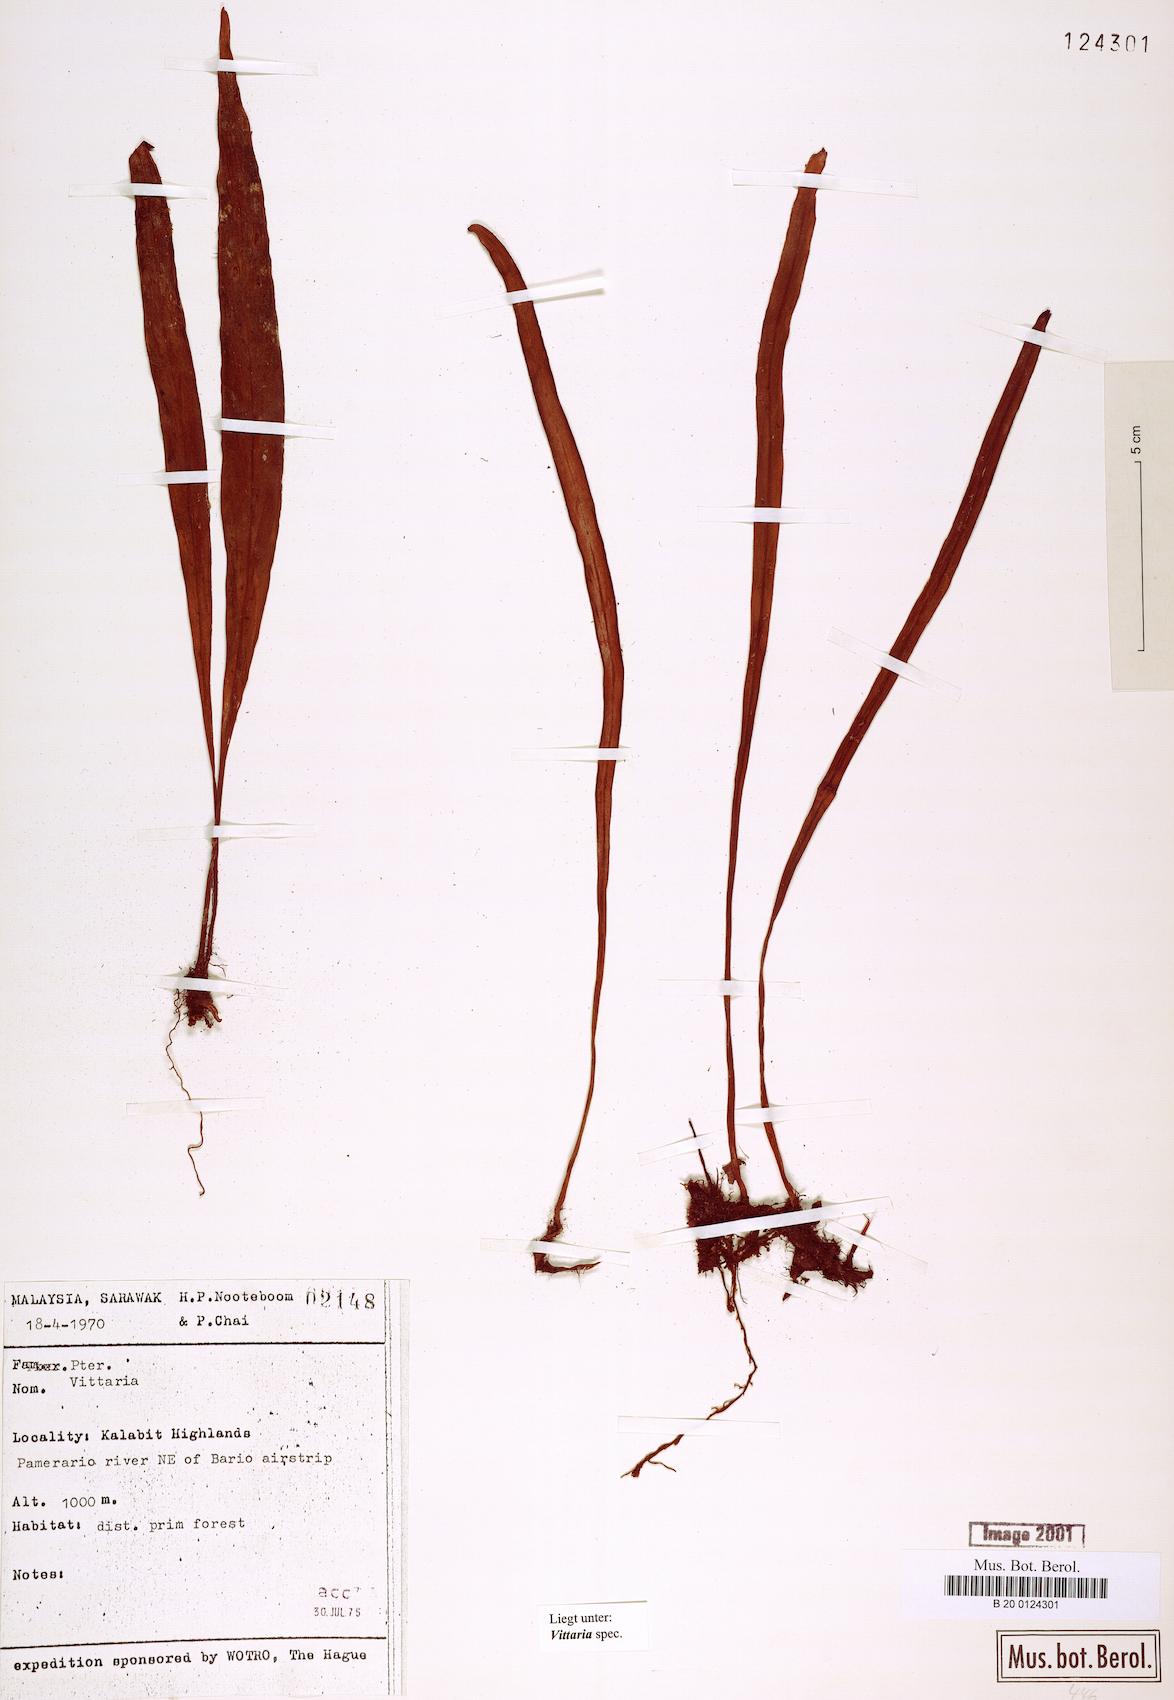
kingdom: Plantae
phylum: Tracheophyta
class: Polypodiopsida
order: Polypodiales
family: Pteridaceae
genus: Vittaria
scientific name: Vittaria
